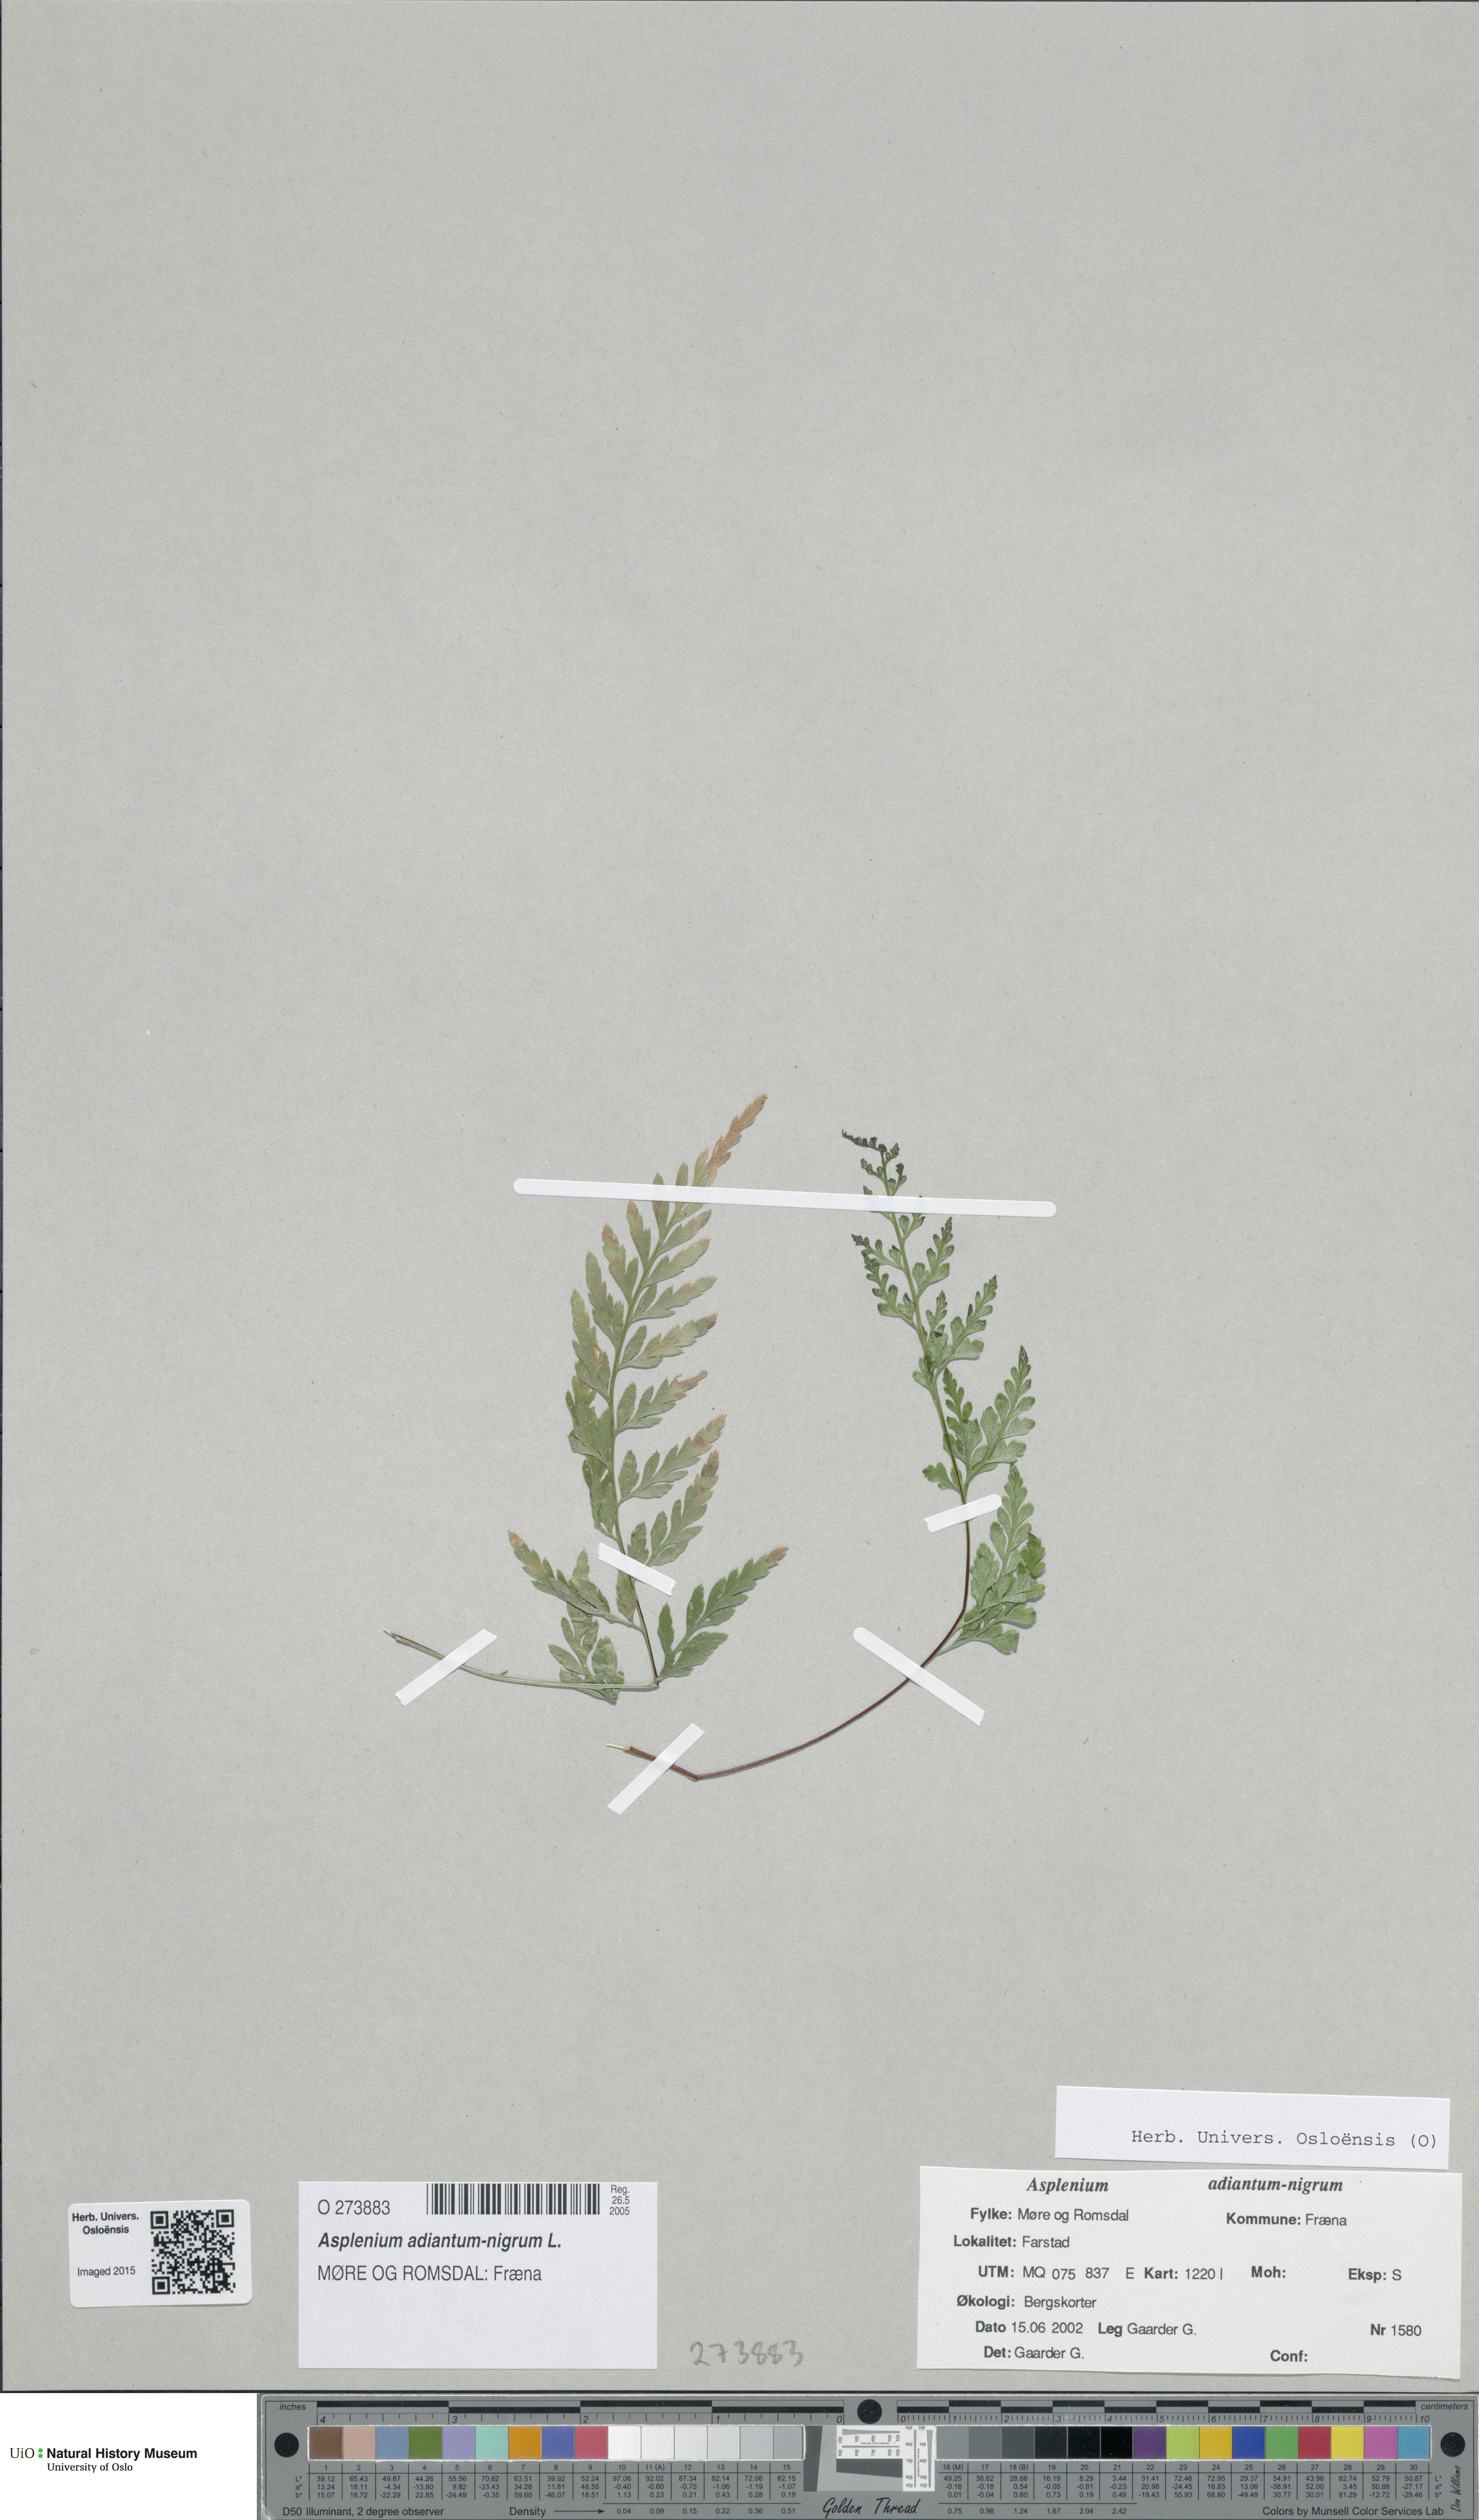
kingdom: Plantae
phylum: Tracheophyta
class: Polypodiopsida
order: Polypodiales
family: Aspleniaceae
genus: Asplenium
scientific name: Asplenium adiantum-nigrum
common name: Black spleenwort
